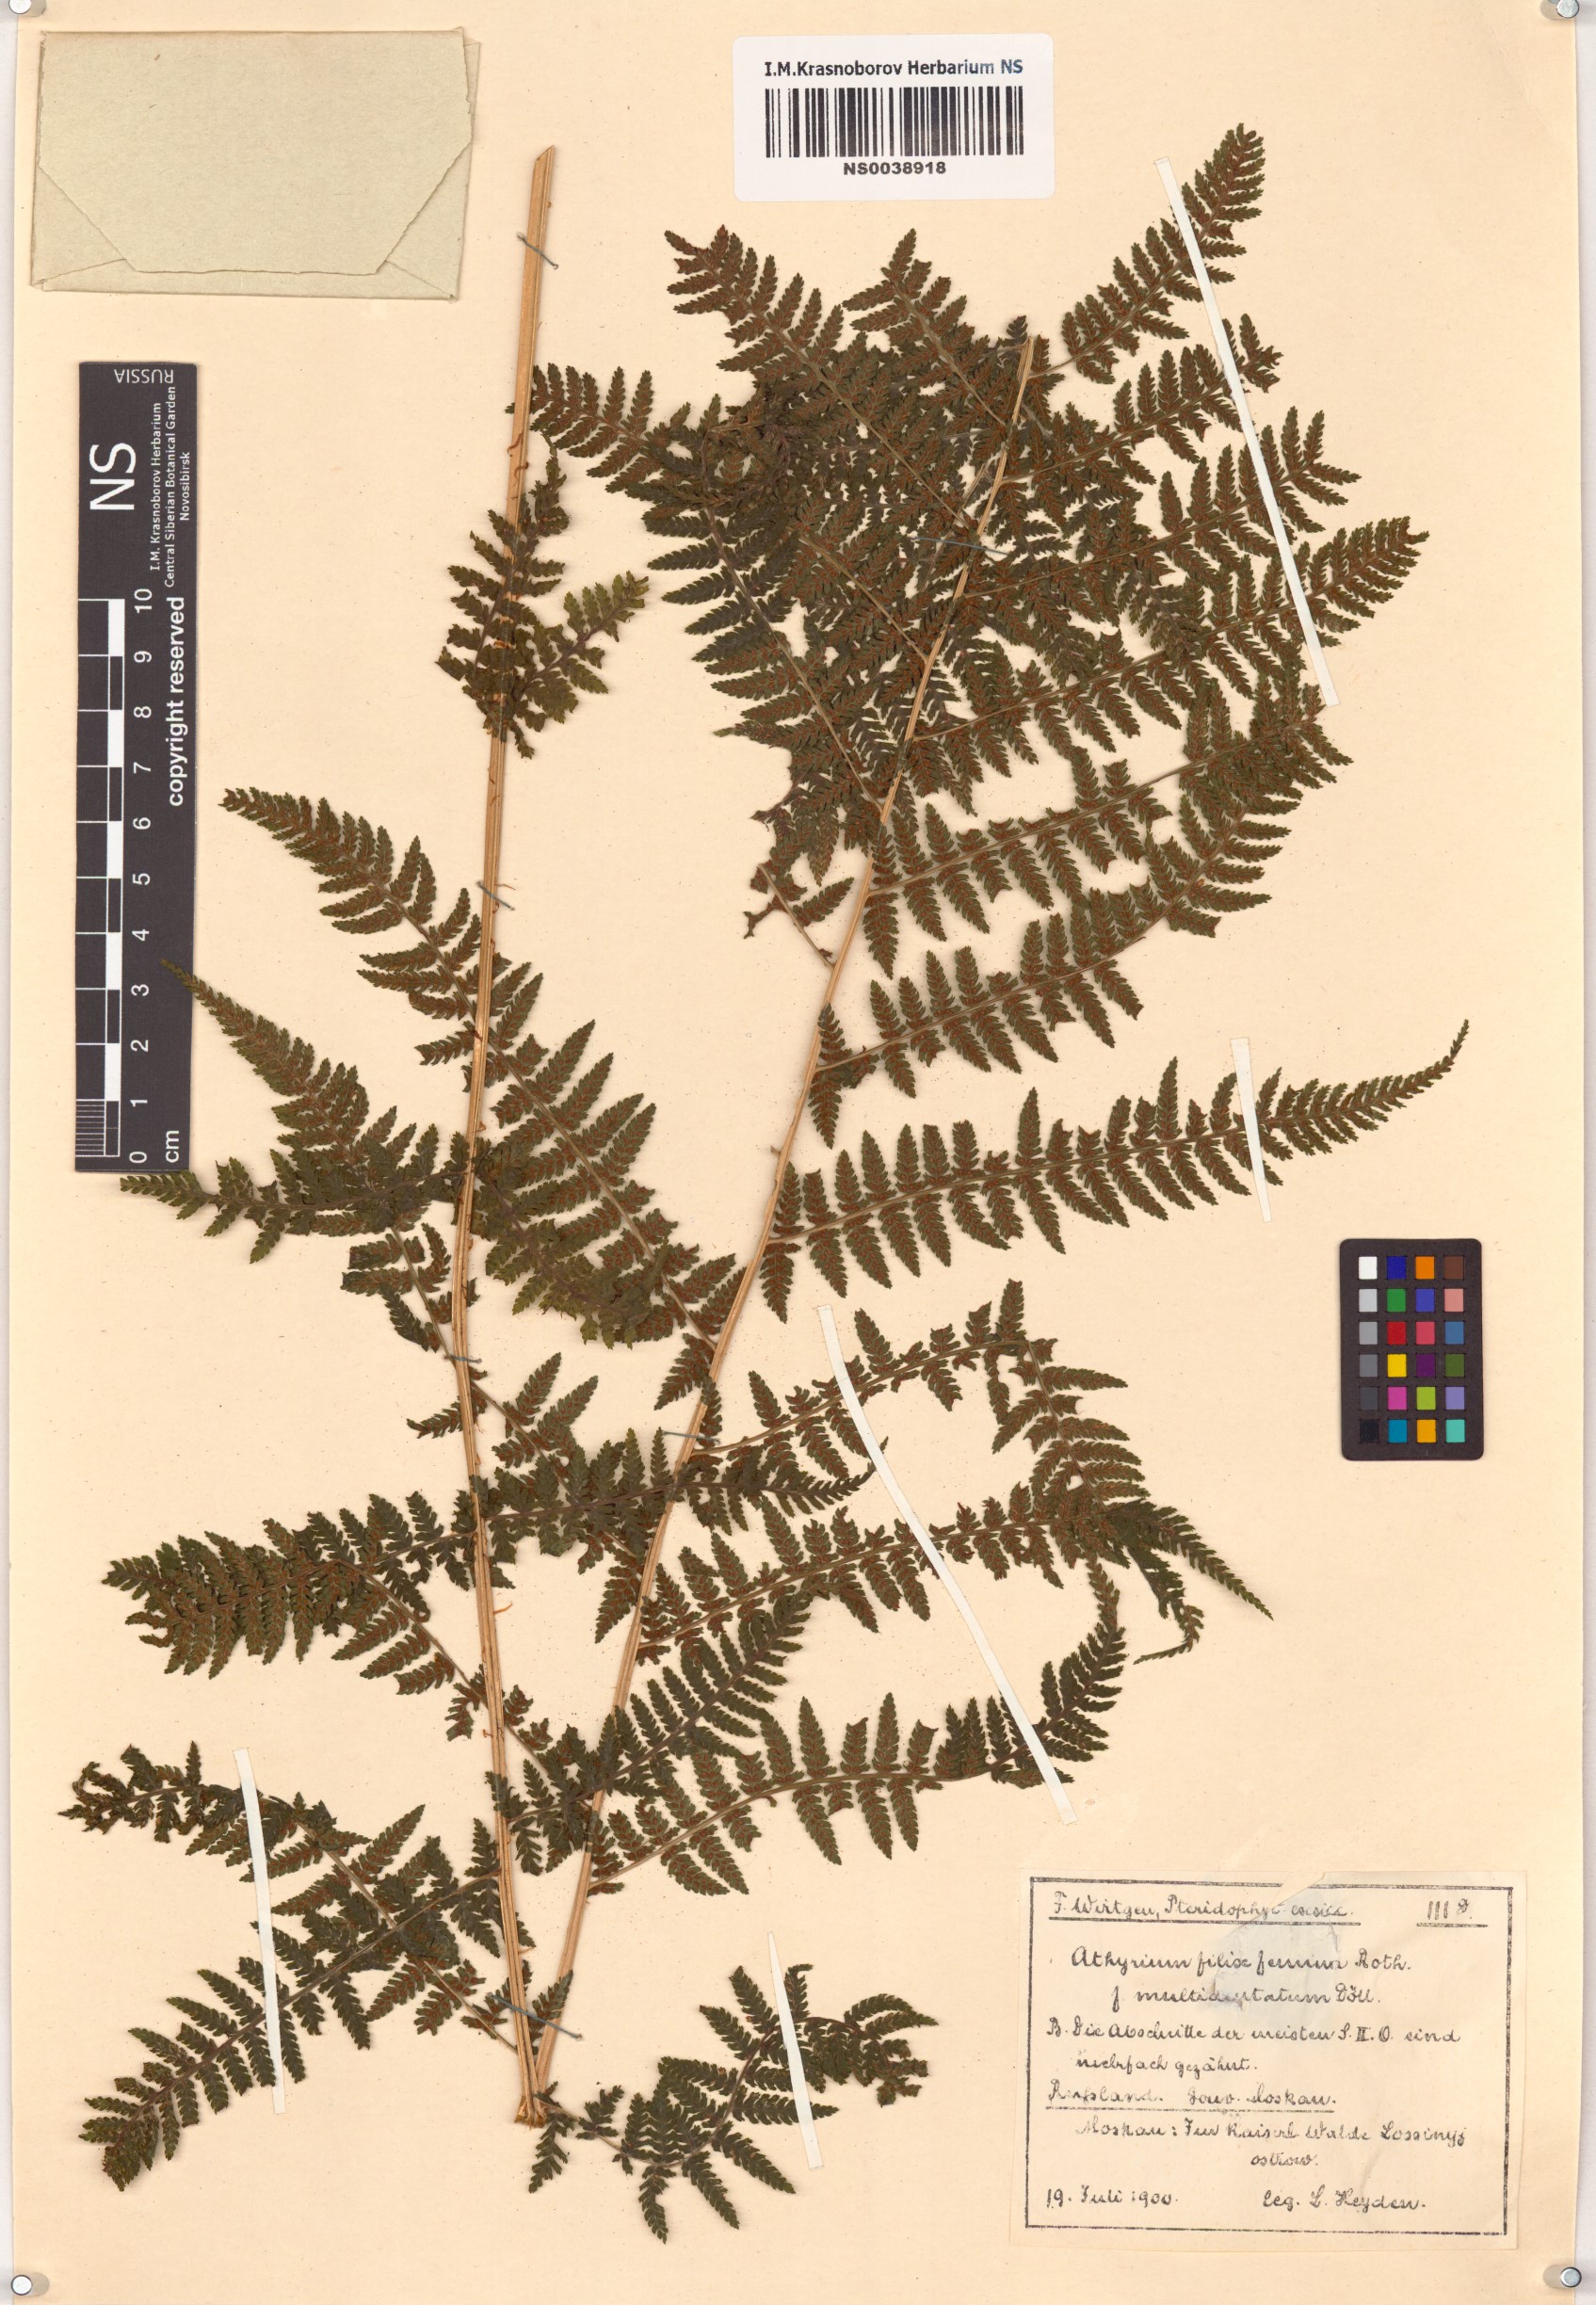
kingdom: Plantae
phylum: Tracheophyta
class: Polypodiopsida
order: Polypodiales
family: Athyriaceae
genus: Athyrium
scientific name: Athyrium filix-femina
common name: Lady fern
